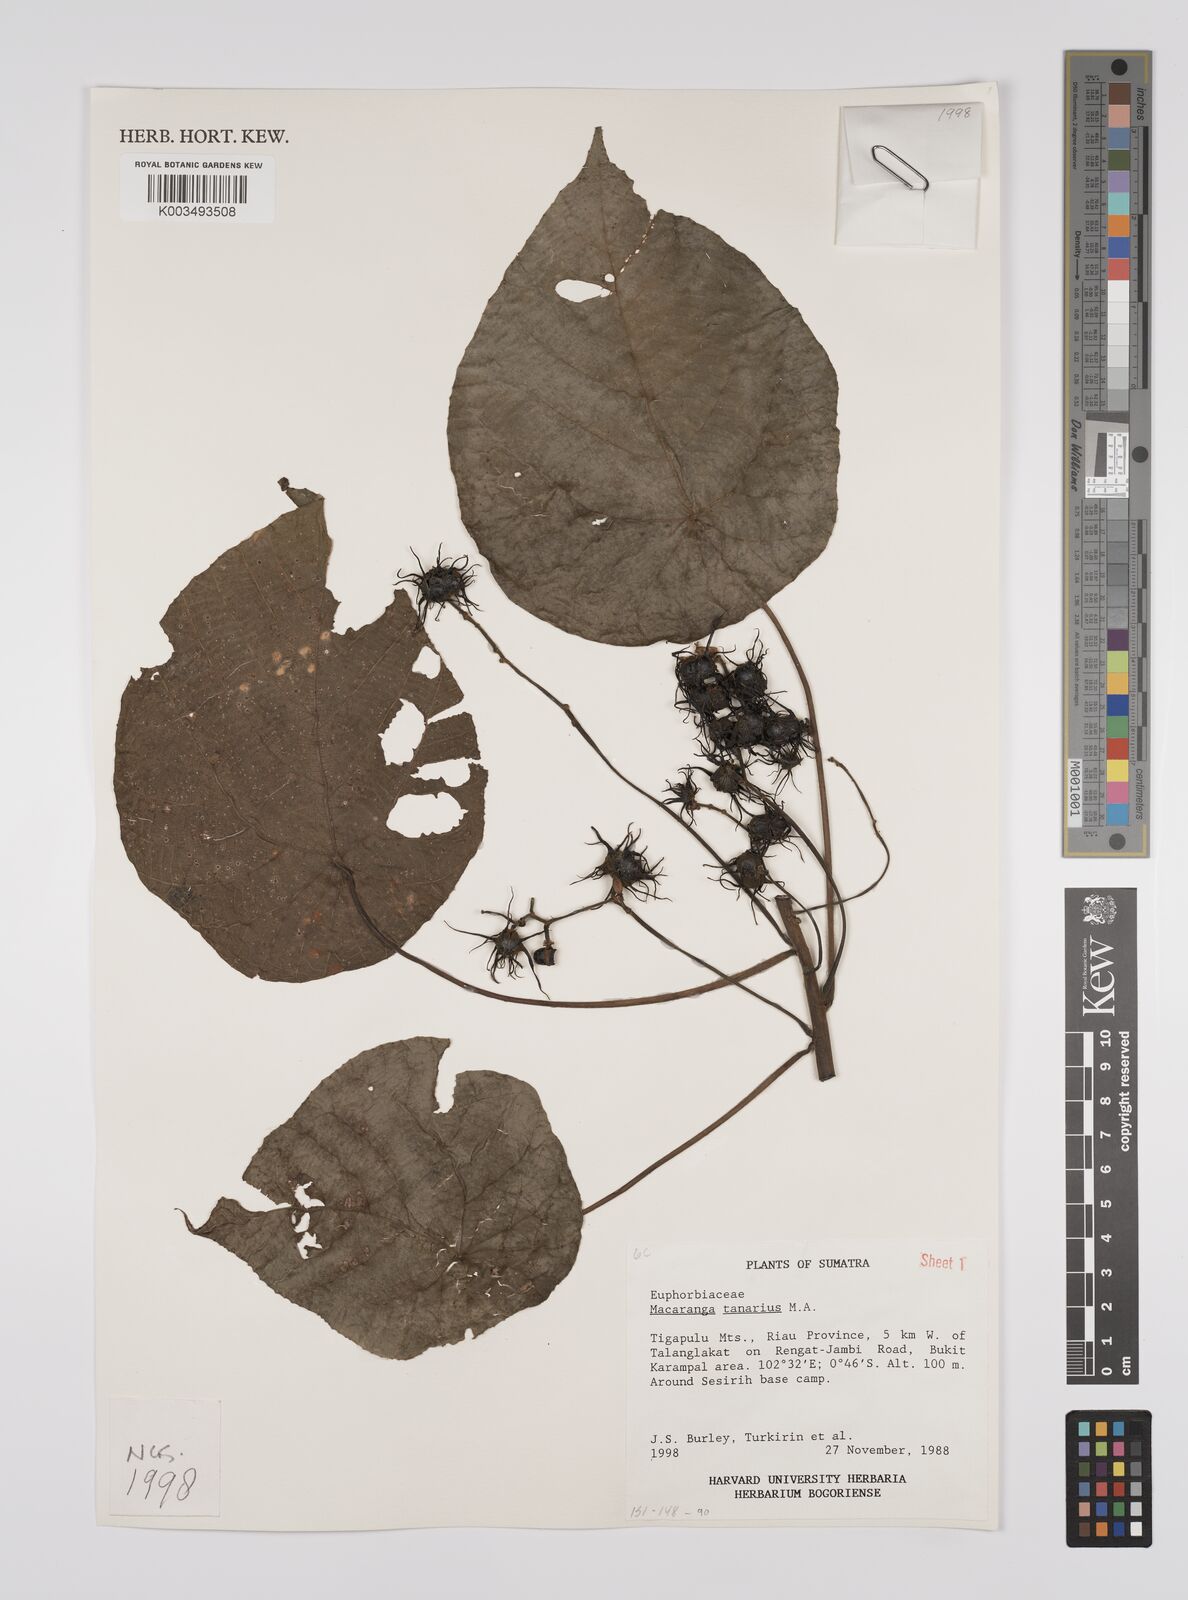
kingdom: Plantae
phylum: Tracheophyta
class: Magnoliopsida
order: Malpighiales
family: Euphorbiaceae
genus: Macaranga
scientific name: Macaranga tanarius
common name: Parasol leaf tree
